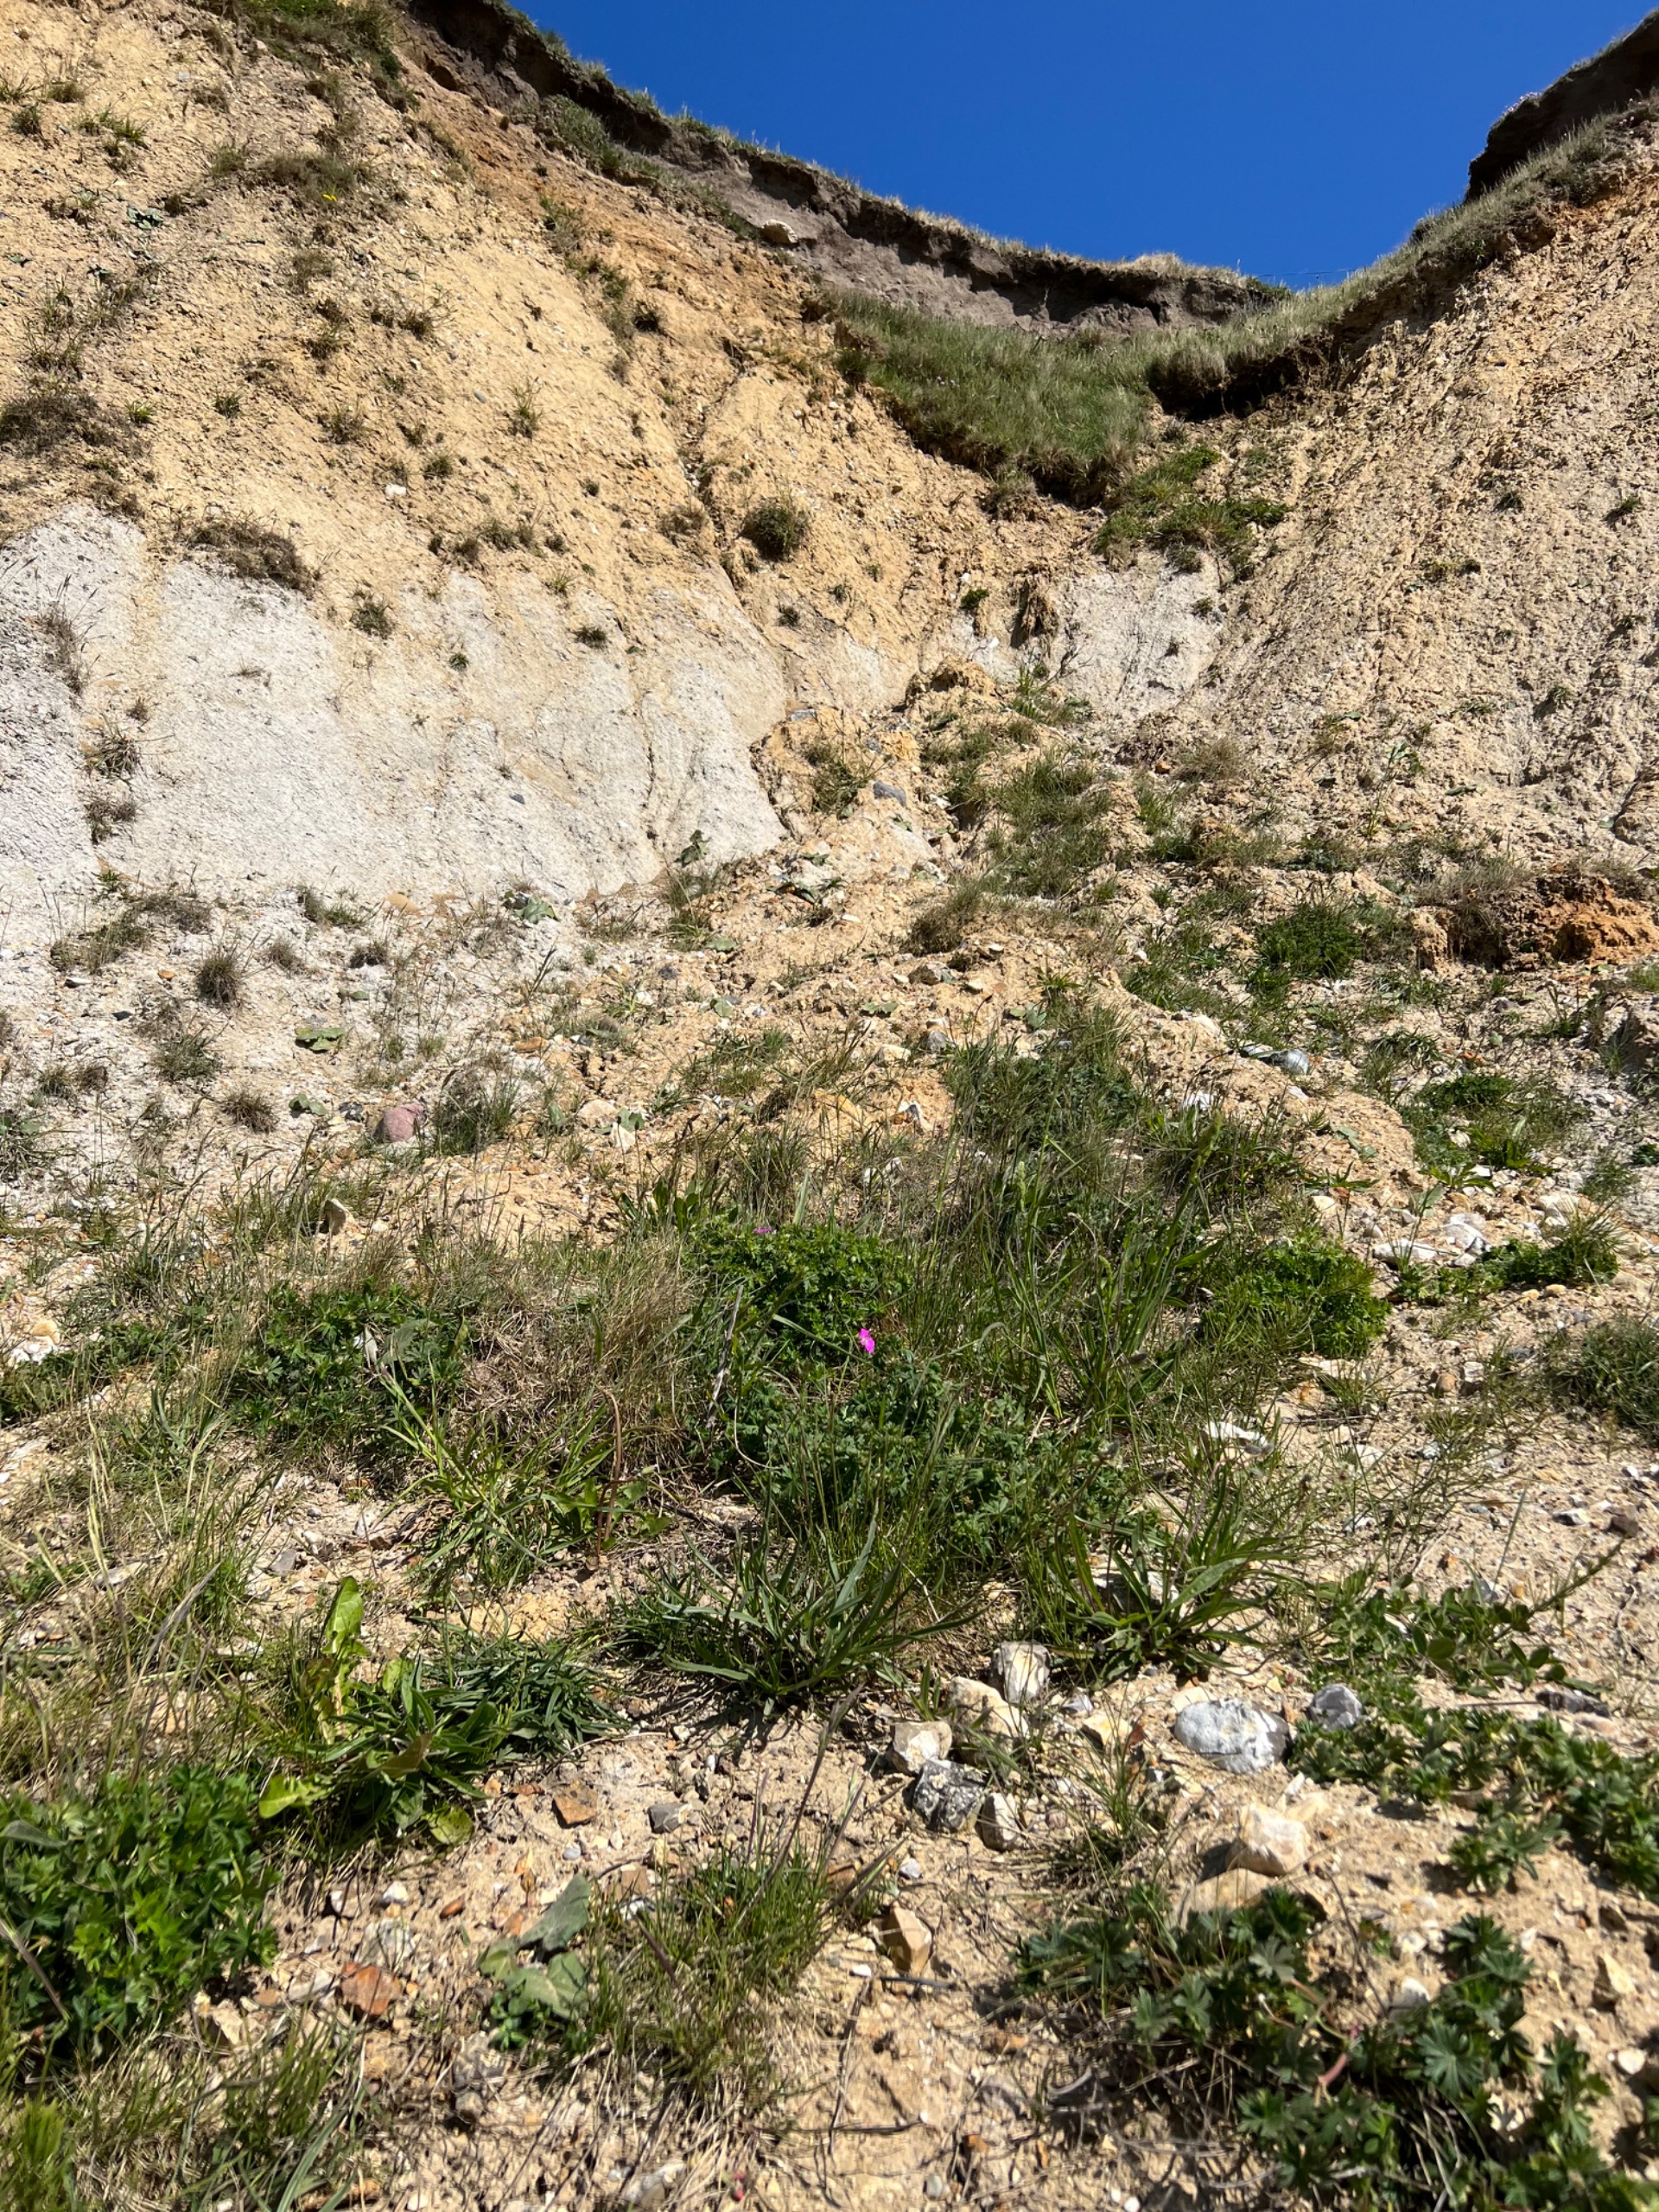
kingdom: Plantae
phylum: Tracheophyta
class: Magnoliopsida
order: Geraniales
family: Geraniaceae
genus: Geranium
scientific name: Geranium sanguineum
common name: Blodrød storkenæb
